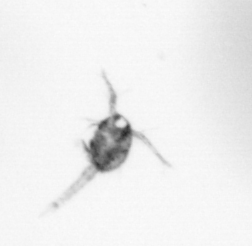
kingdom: Animalia
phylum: Arthropoda
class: Copepoda
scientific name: Copepoda
